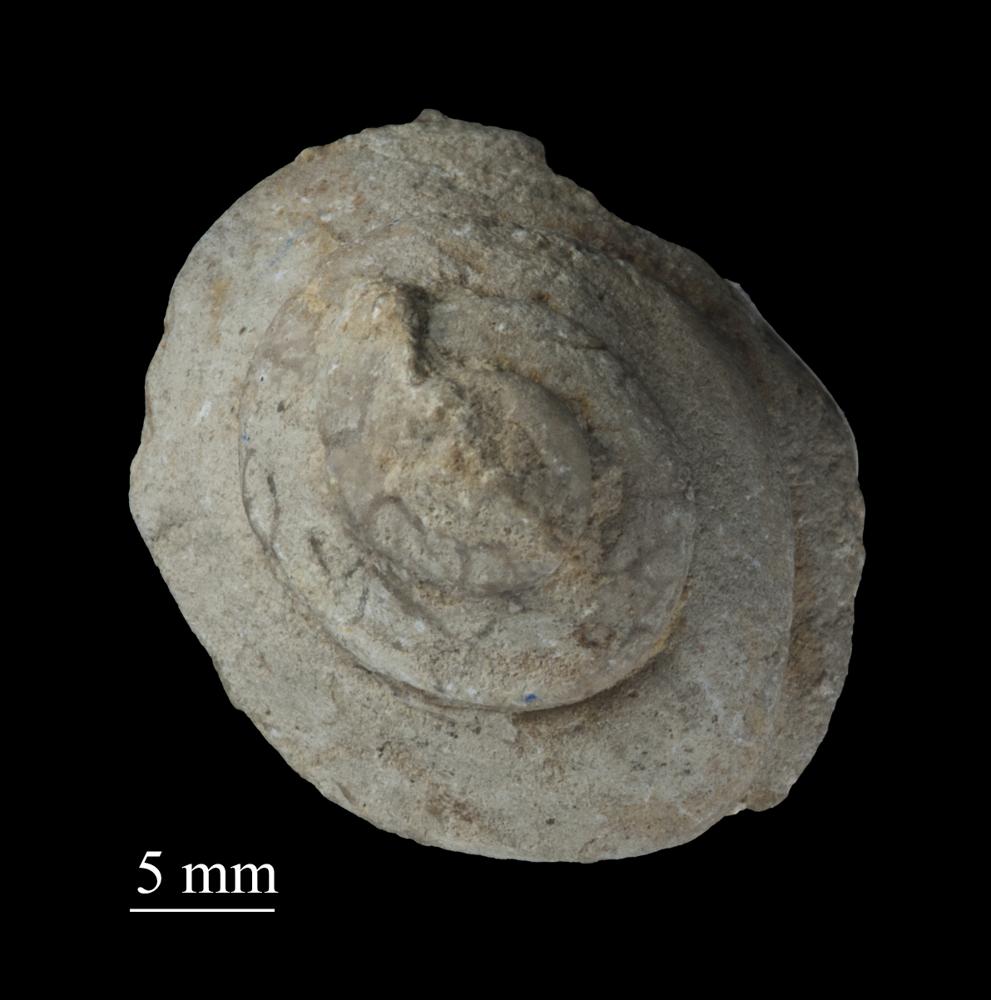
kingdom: Animalia
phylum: Mollusca
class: Gastropoda
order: Neogastropoda
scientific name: Neogastropoda
